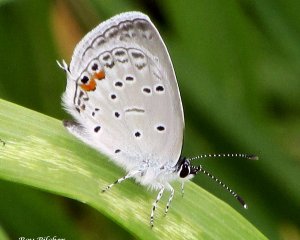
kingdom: Animalia
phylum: Arthropoda
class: Insecta
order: Lepidoptera
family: Lycaenidae
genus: Elkalyce
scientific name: Elkalyce comyntas
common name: Eastern Tailed-Blue
